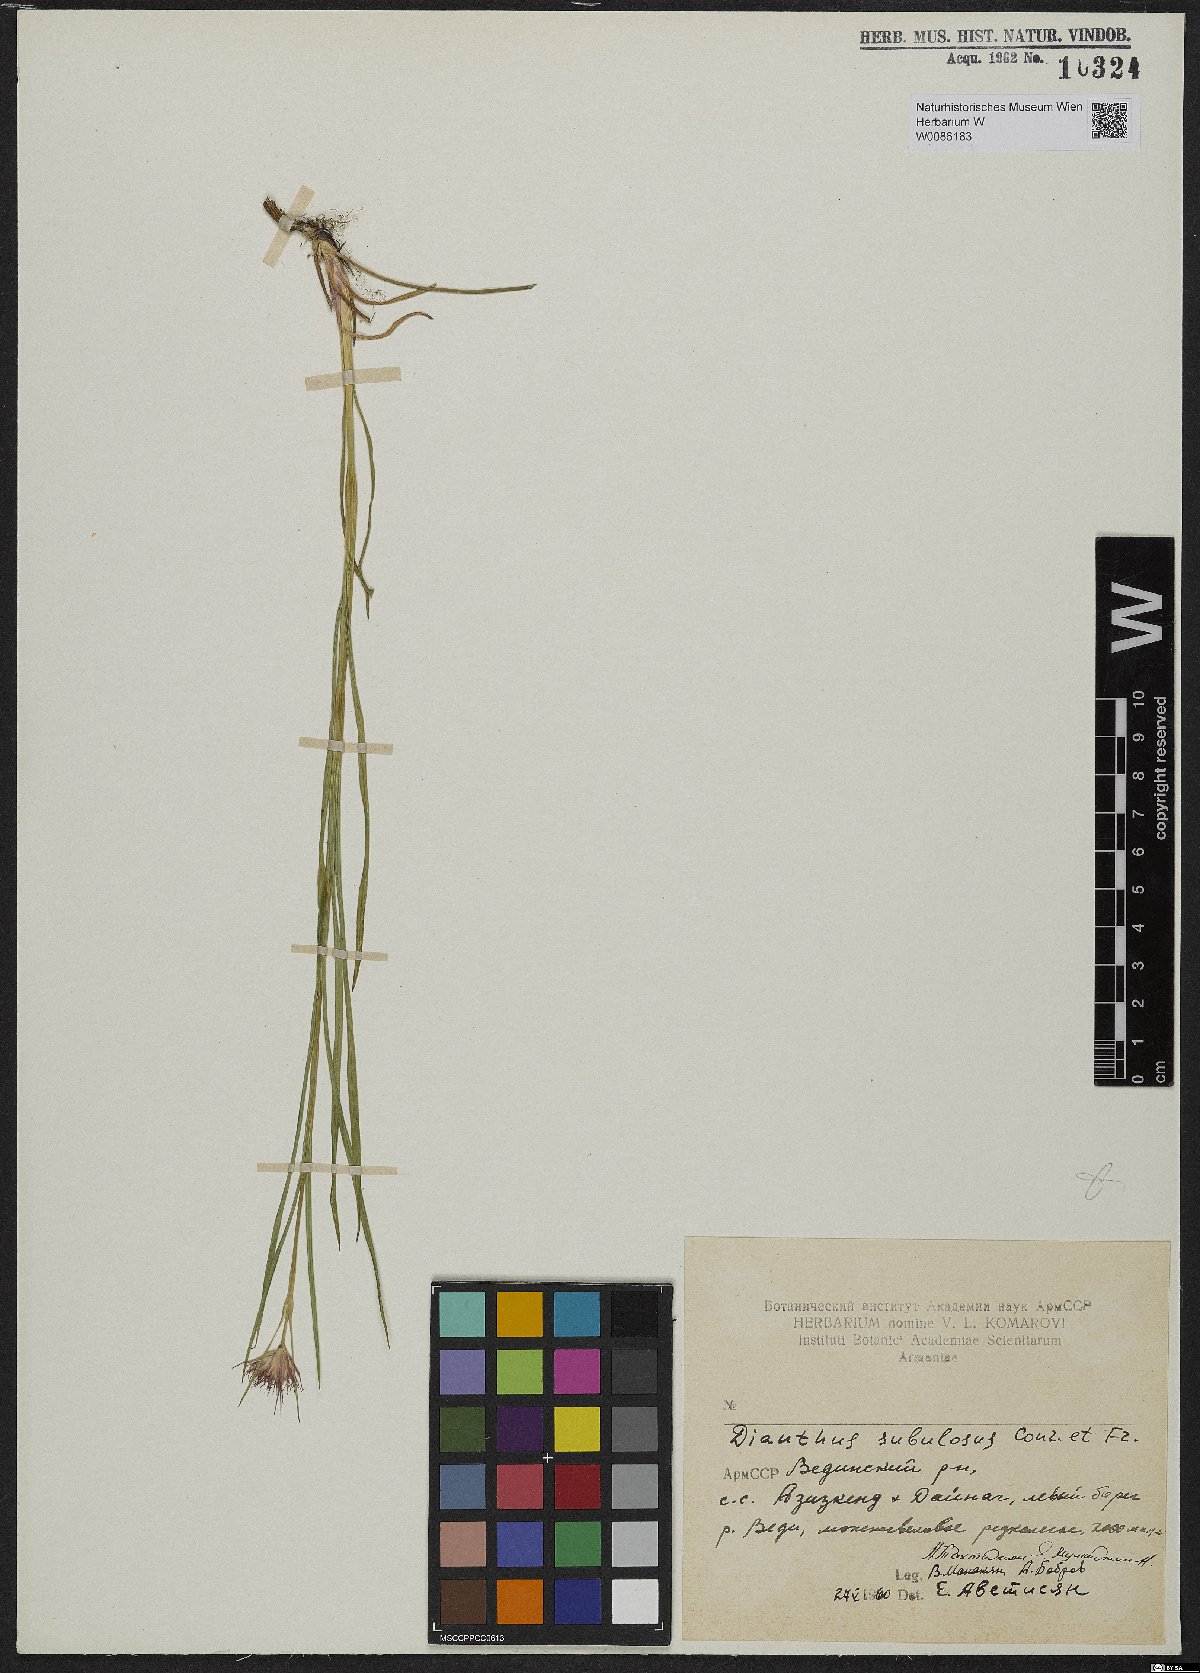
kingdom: Plantae
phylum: Tracheophyta
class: Magnoliopsida
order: Caryophyllales
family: Caryophyllaceae
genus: Dianthus
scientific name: Dianthus subulosus
